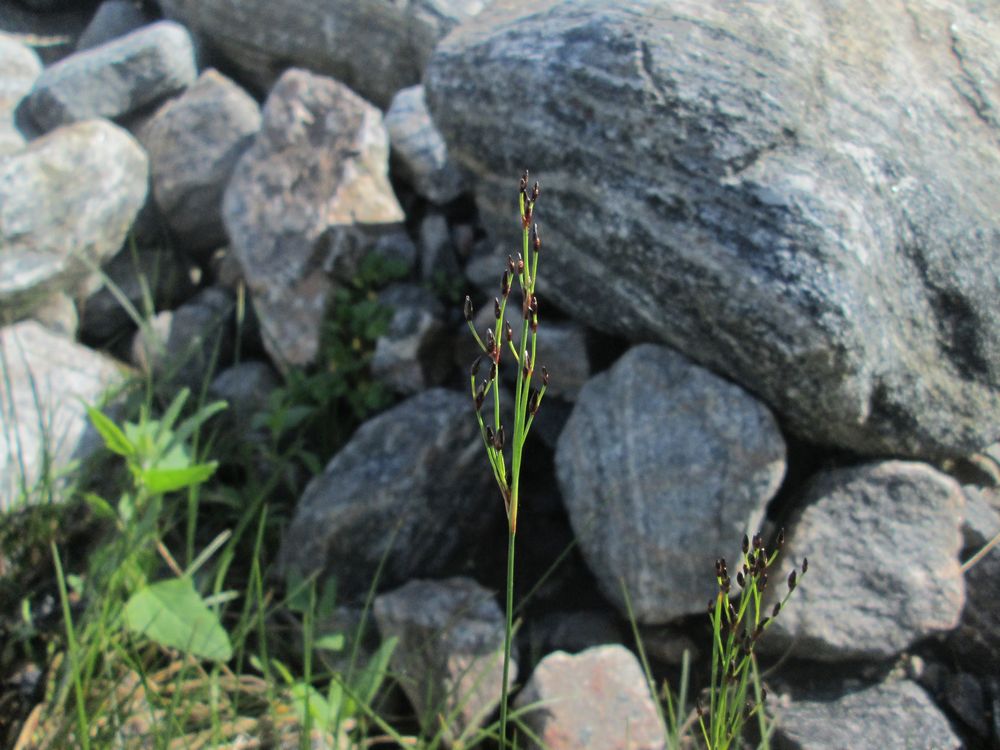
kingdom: Plantae
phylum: Tracheophyta
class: Liliopsida
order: Poales
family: Juncaceae
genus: Juncus
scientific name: Juncus
